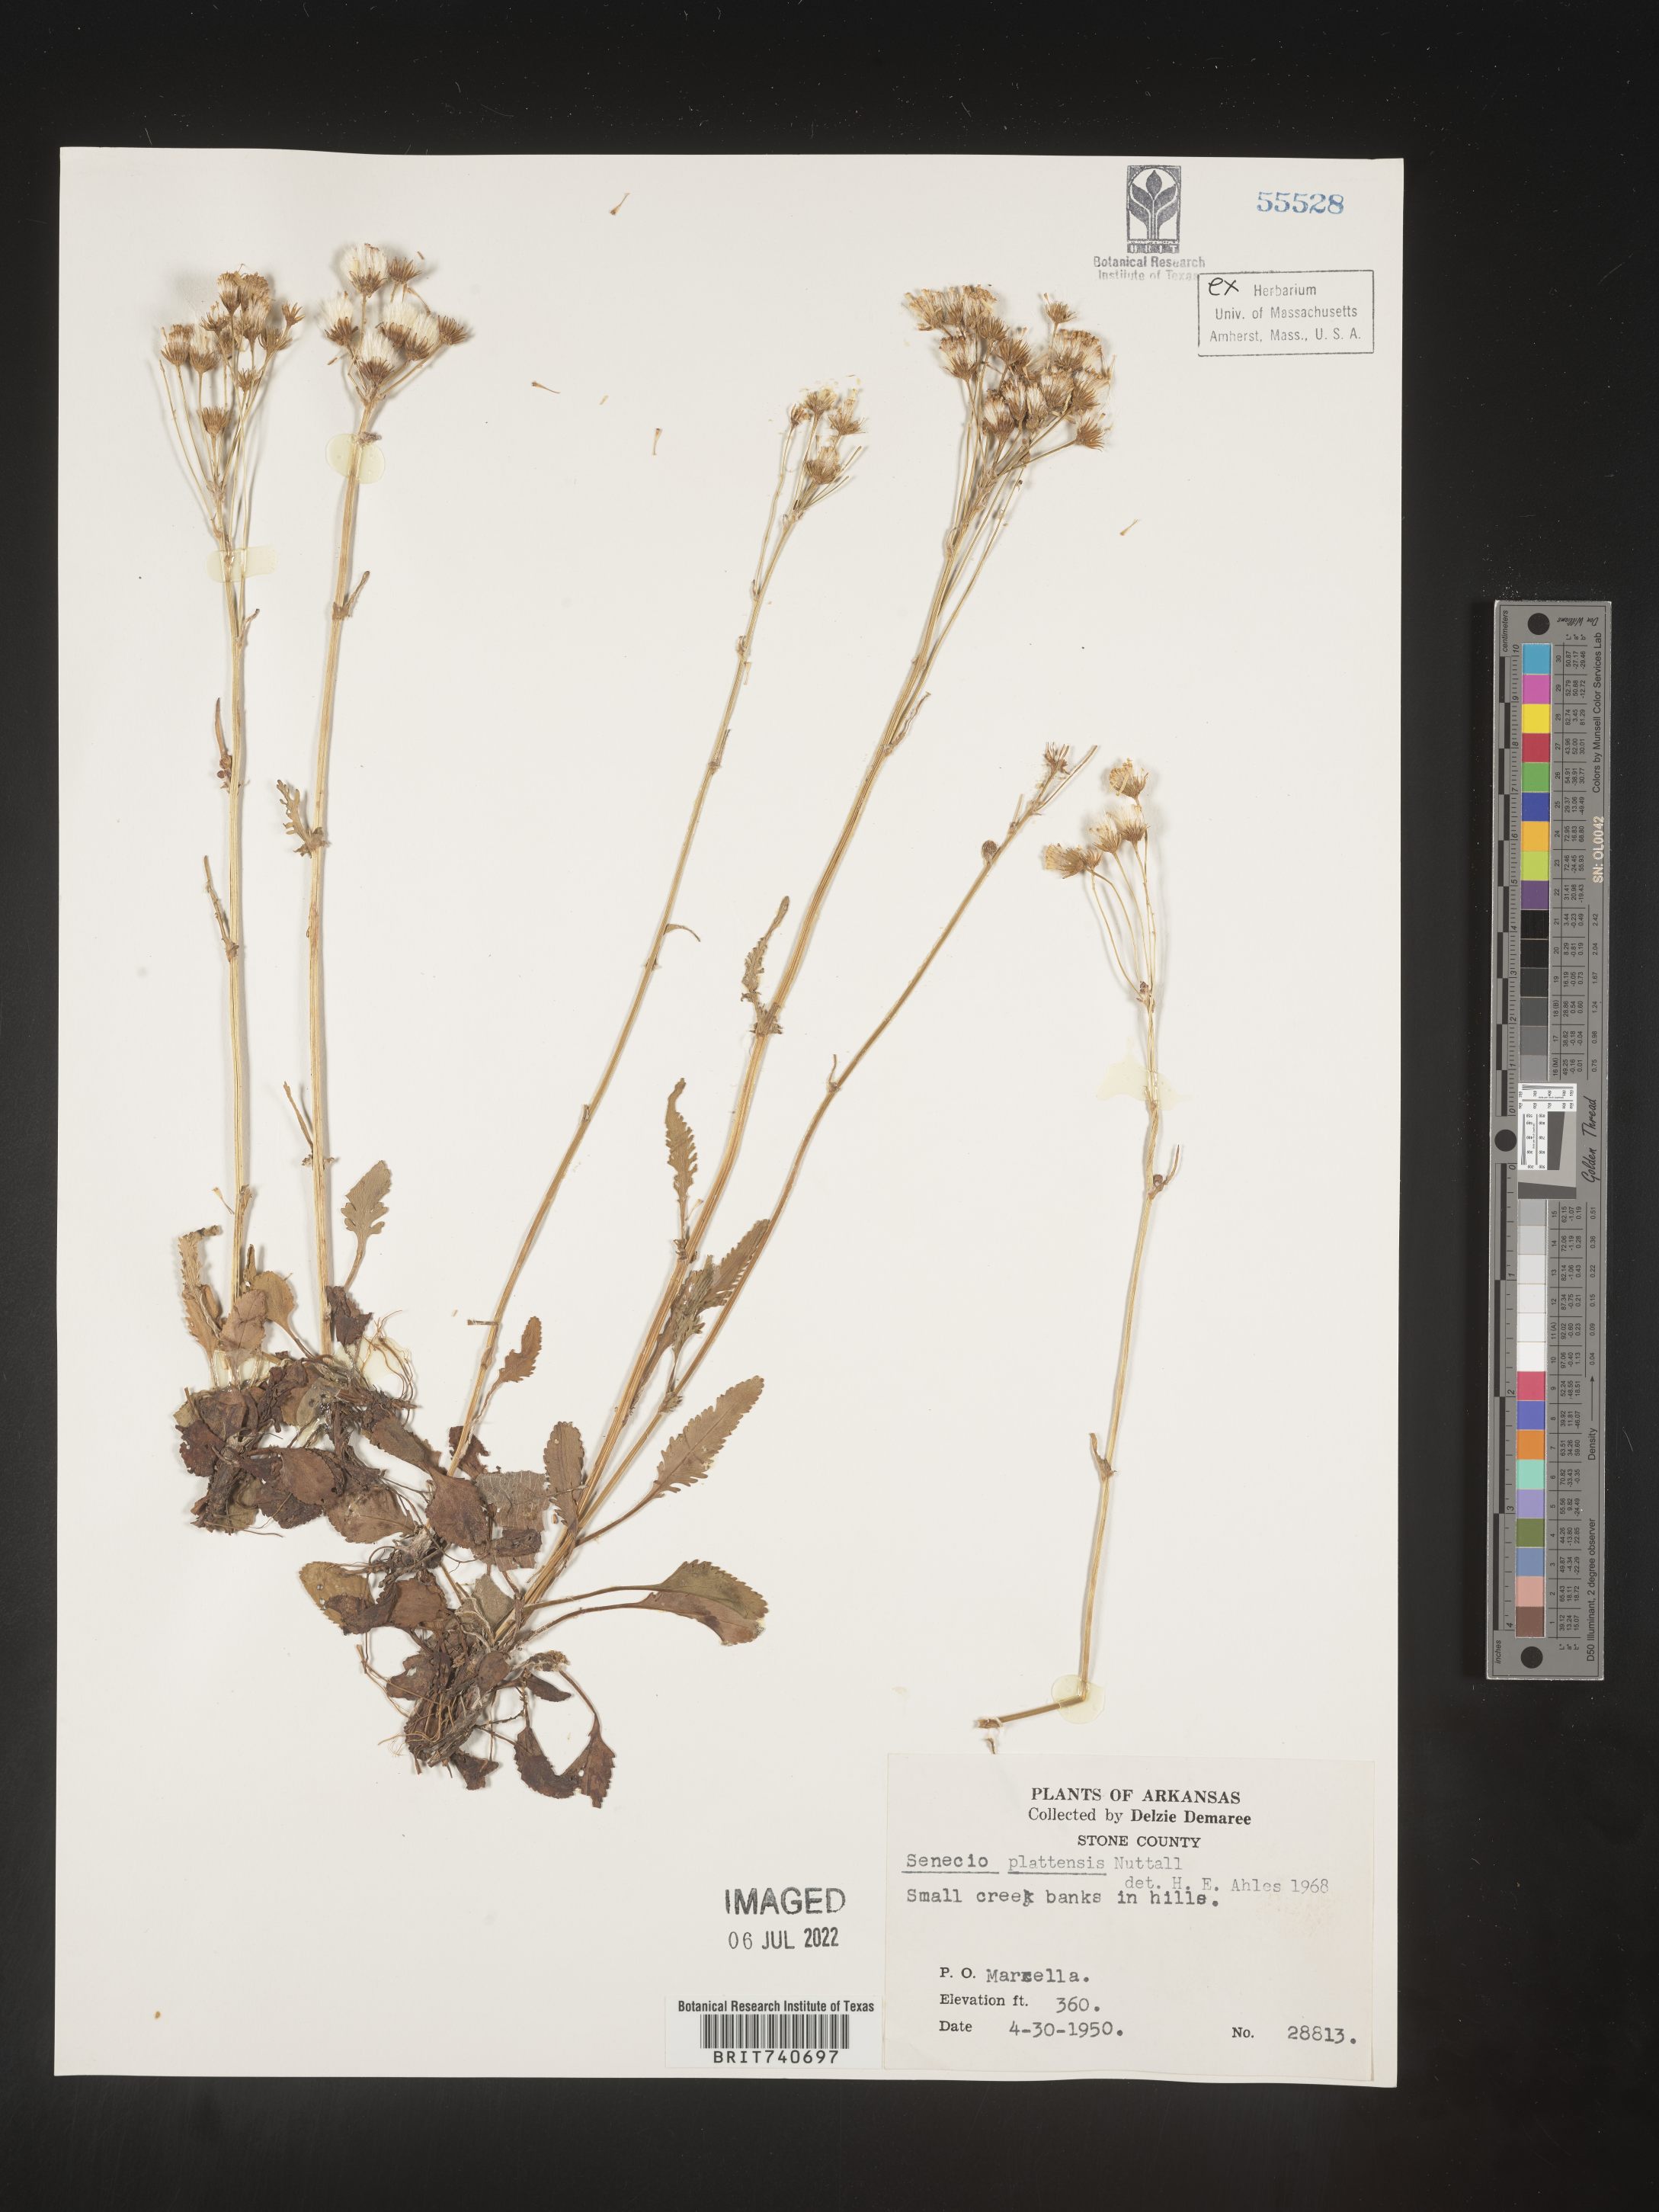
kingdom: Plantae
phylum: Tracheophyta
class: Magnoliopsida
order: Asterales
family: Asteraceae
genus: Packera
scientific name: Packera plattensis
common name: Prairie groundsel
